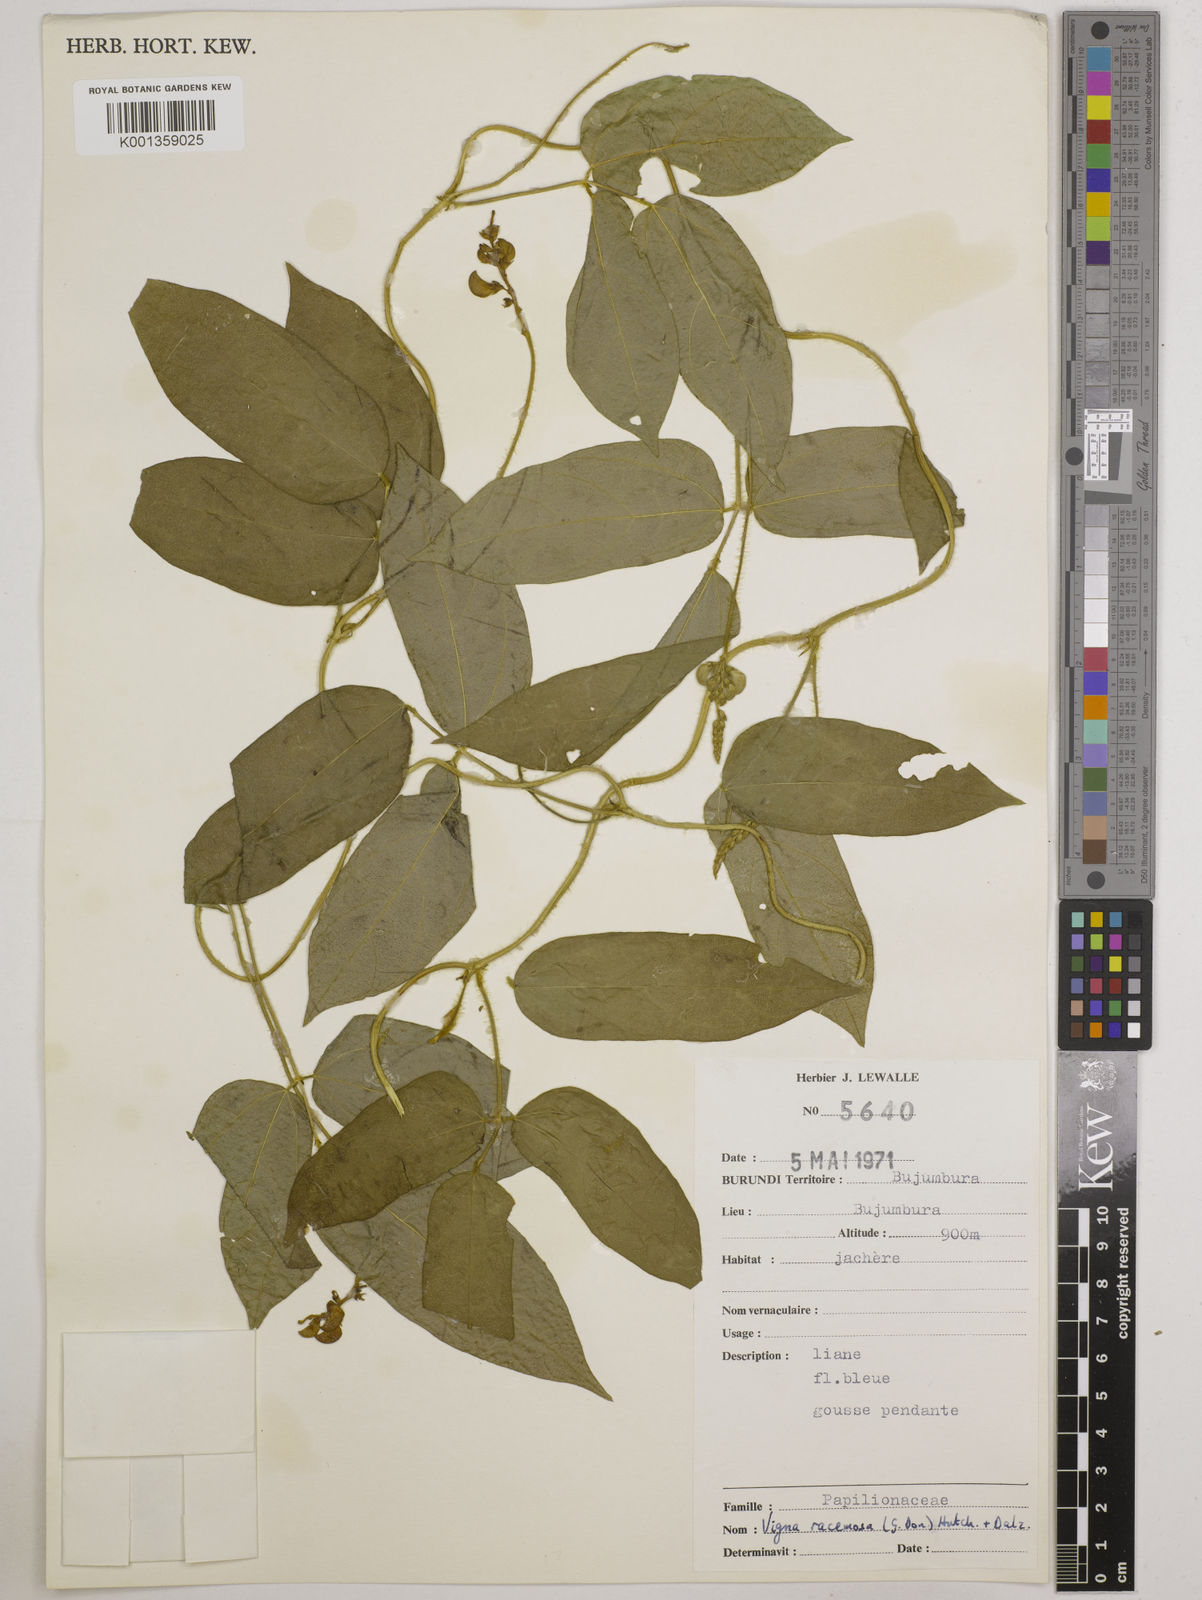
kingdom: Plantae
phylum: Tracheophyta
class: Magnoliopsida
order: Fabales
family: Fabaceae
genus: Vigna
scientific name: Vigna racemosa
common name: Beans not eaten
